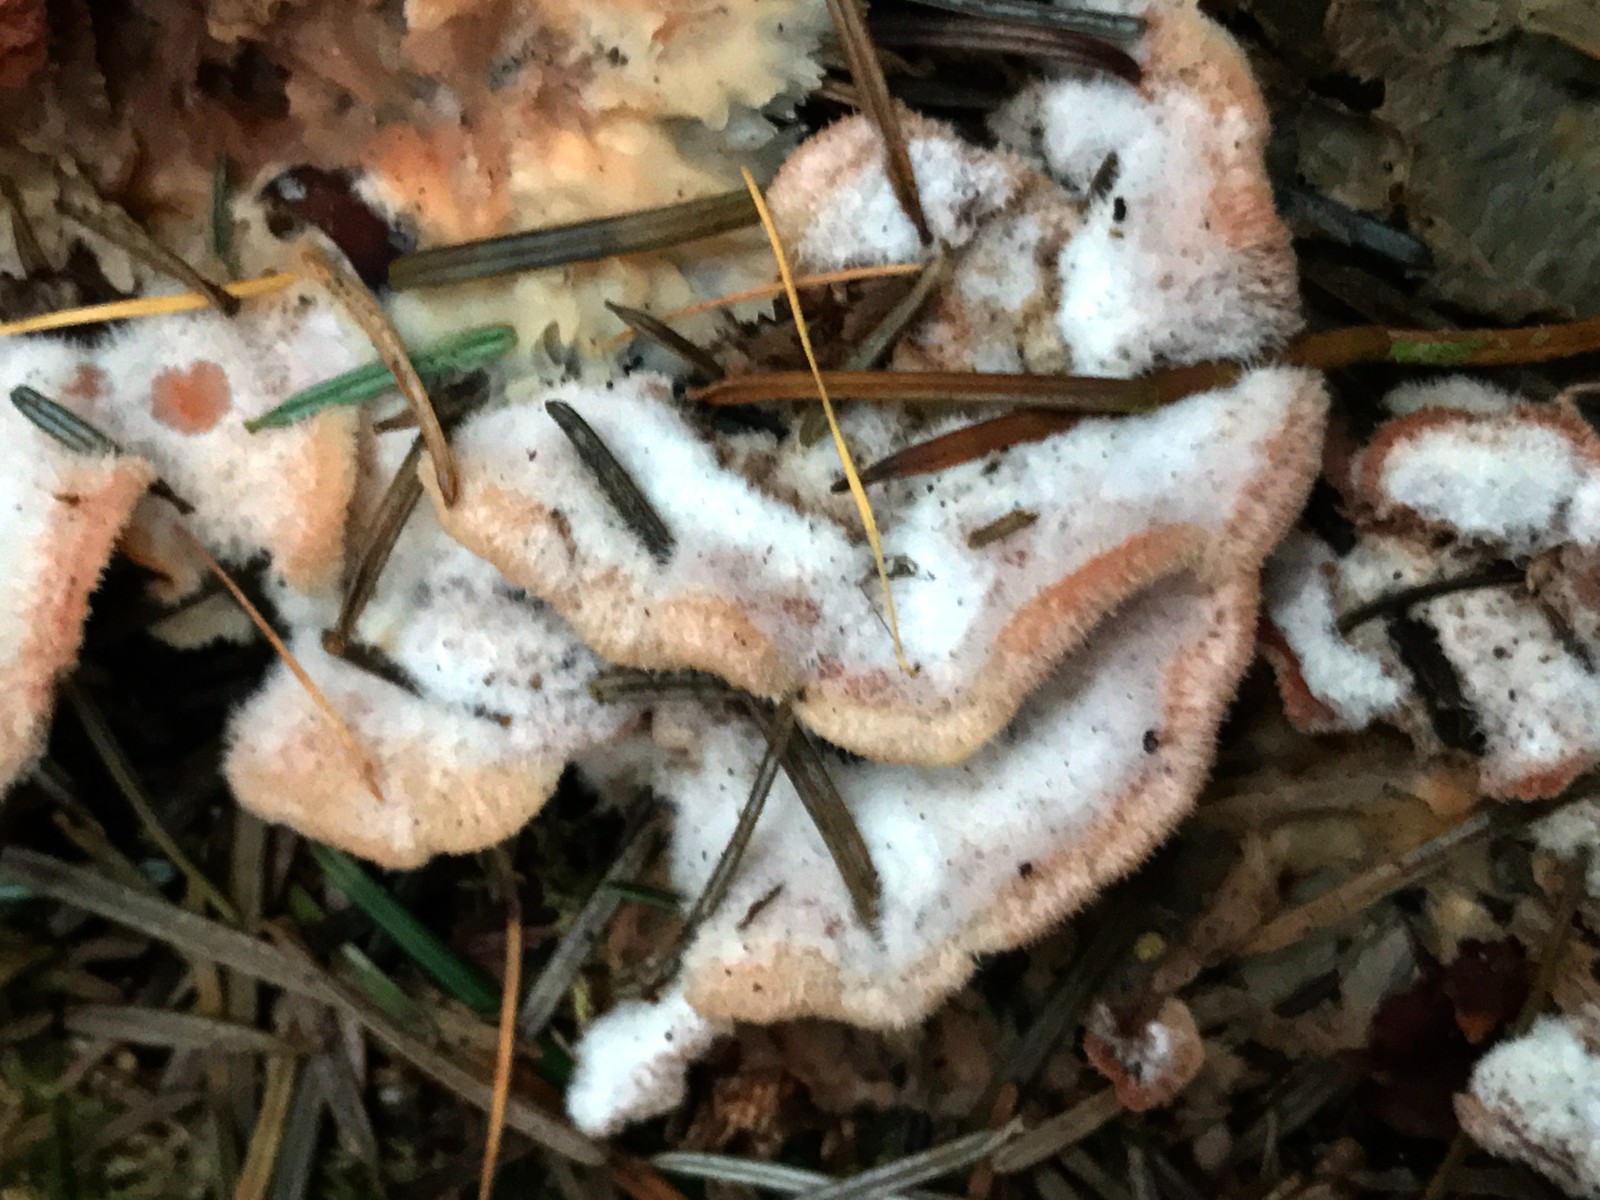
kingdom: Fungi
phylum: Basidiomycota
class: Agaricomycetes
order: Polyporales
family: Meruliaceae
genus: Phlebia
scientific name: Phlebia tremellosa
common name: bævrende åresvamp
